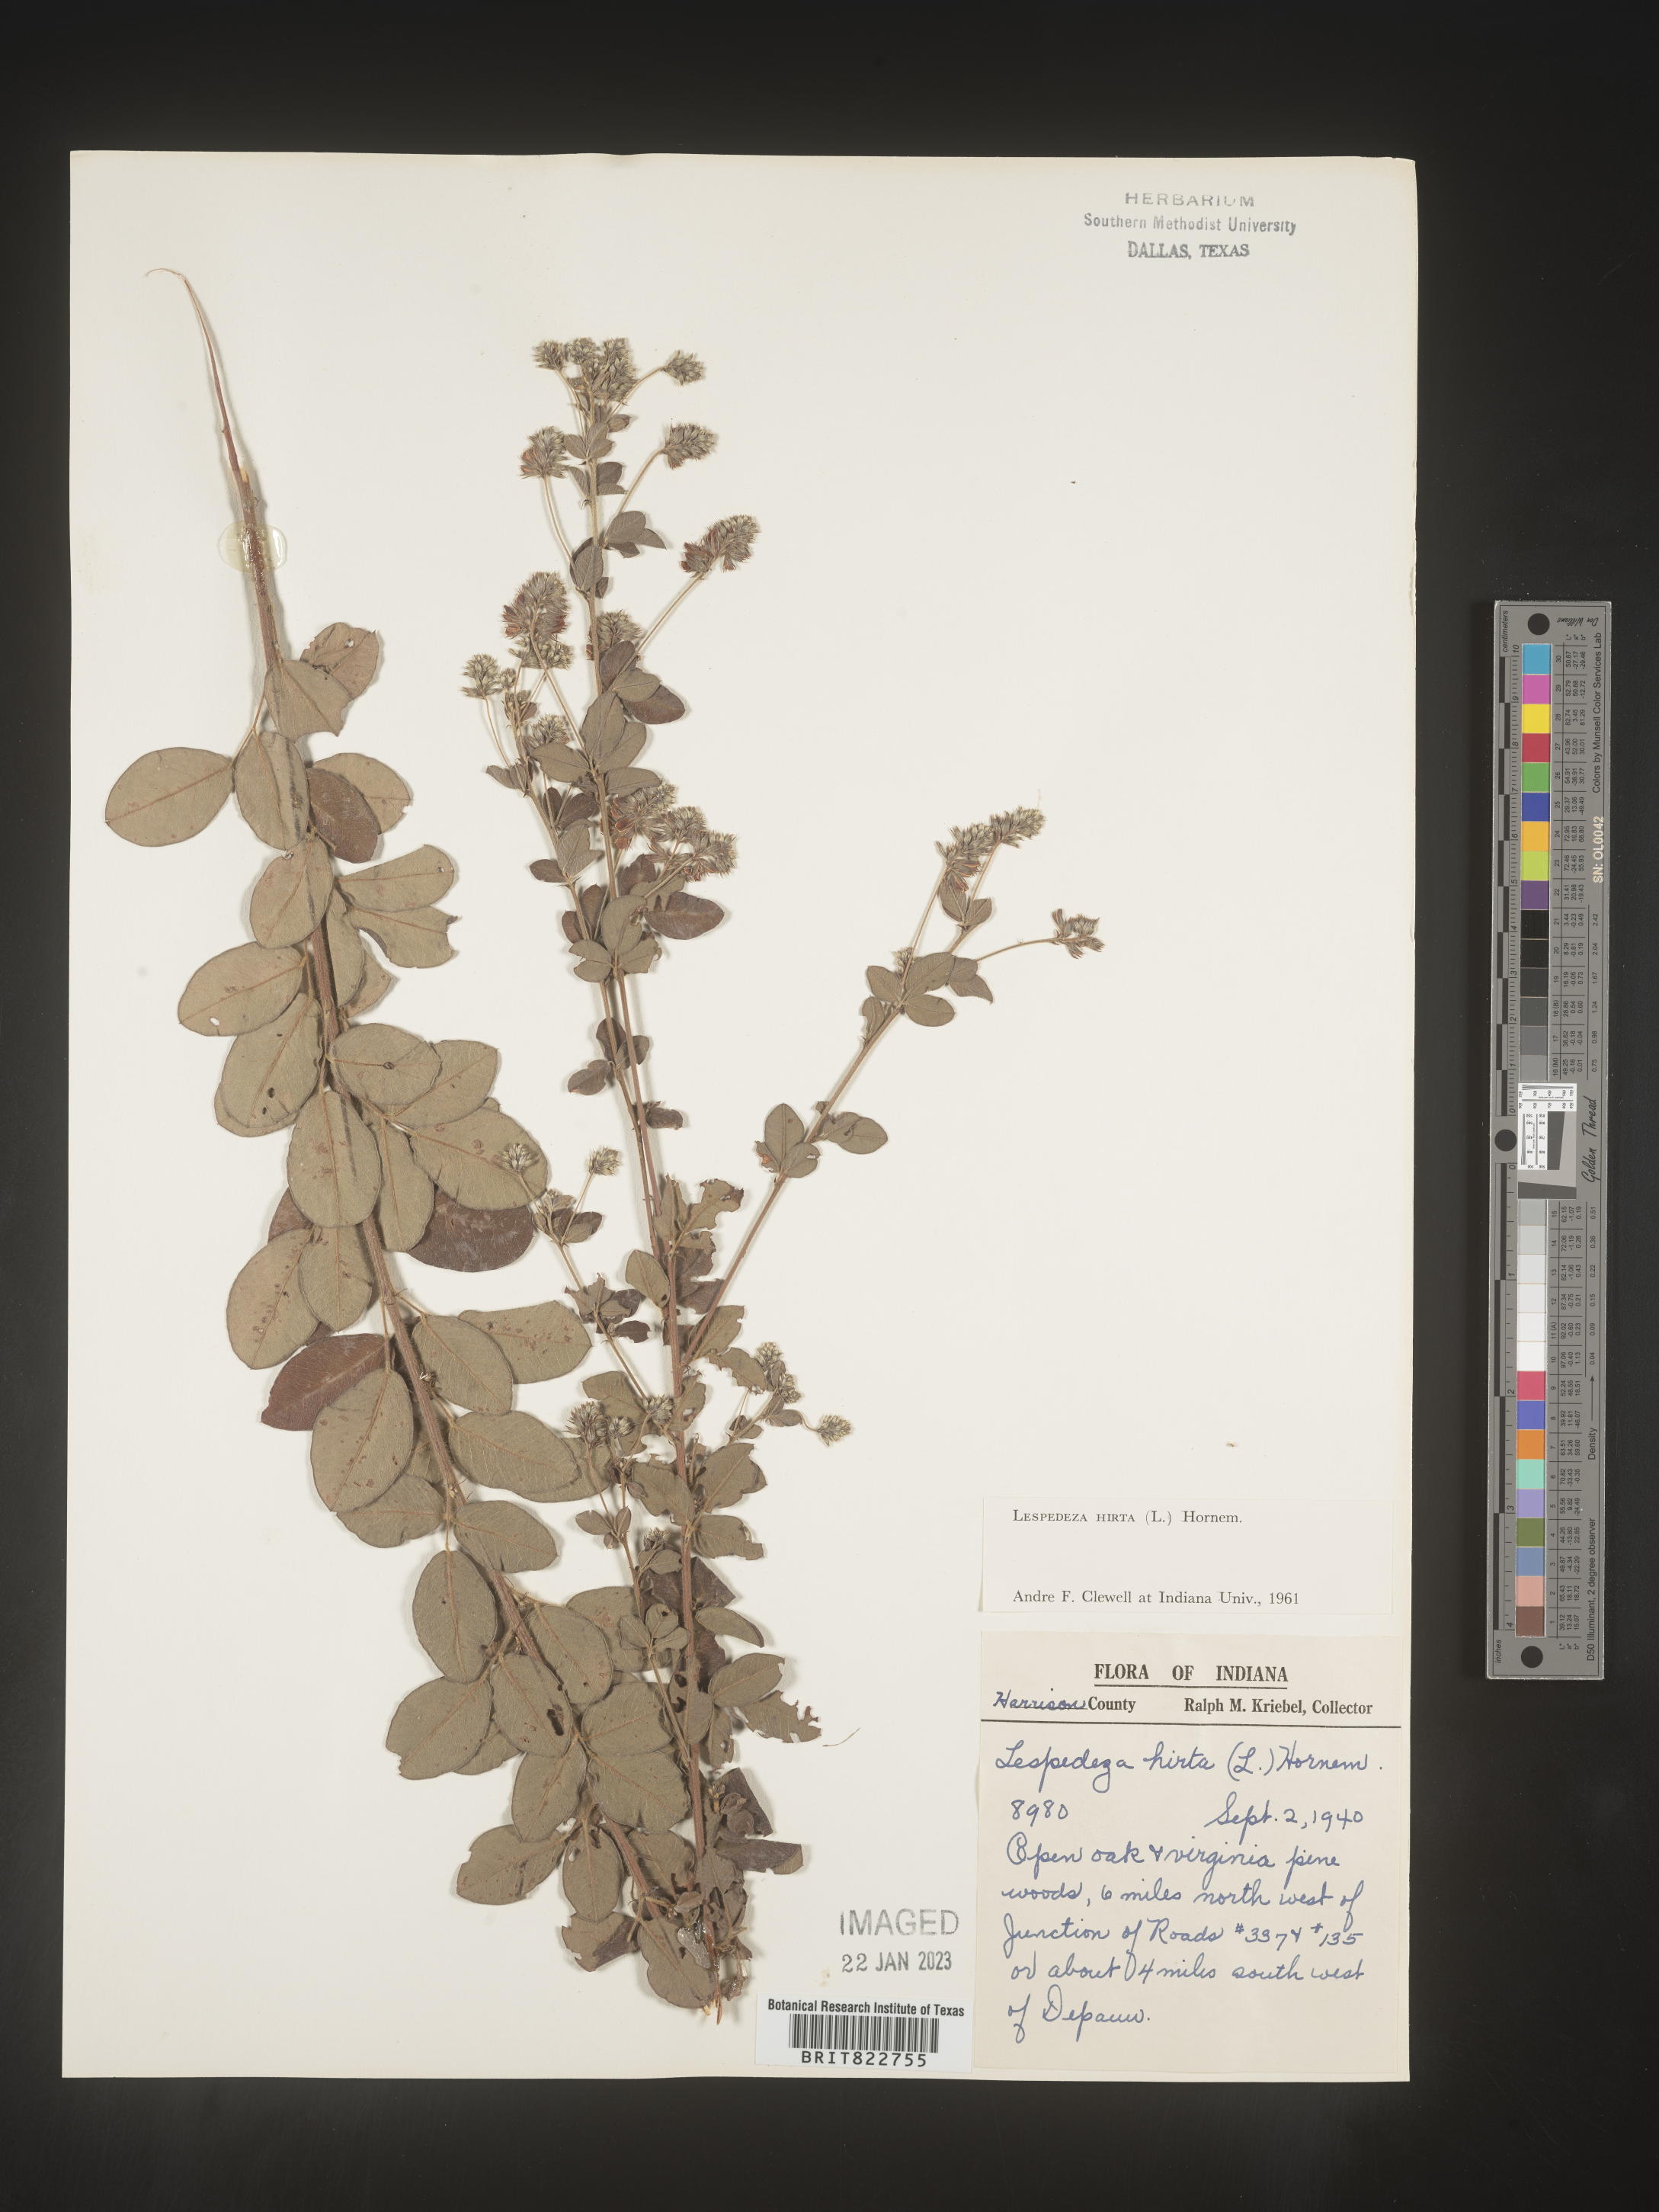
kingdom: Plantae
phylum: Tracheophyta
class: Magnoliopsida
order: Fabales
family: Fabaceae
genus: Lespedeza
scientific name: Lespedeza hirta
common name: Hairy lespedeza
